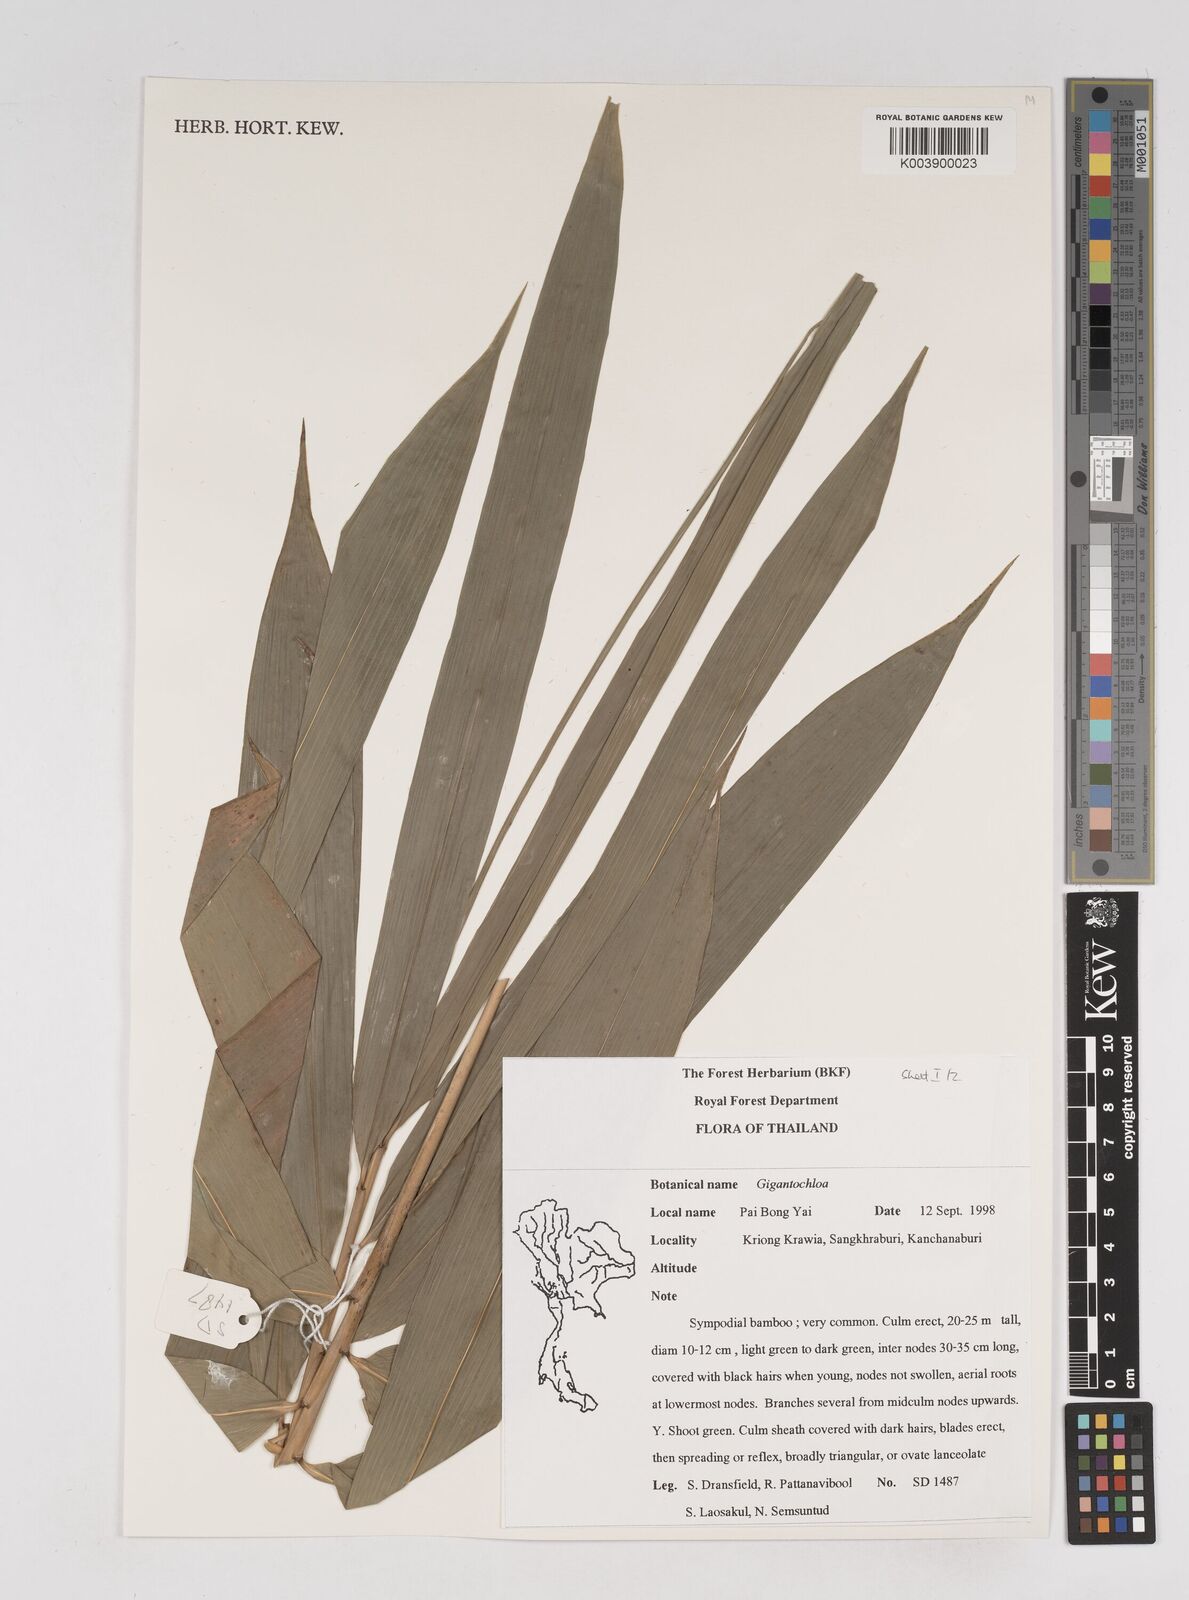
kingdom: Plantae
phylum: Tracheophyta
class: Liliopsida
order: Poales
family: Poaceae
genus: Gigantochloa
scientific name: Gigantochloa
